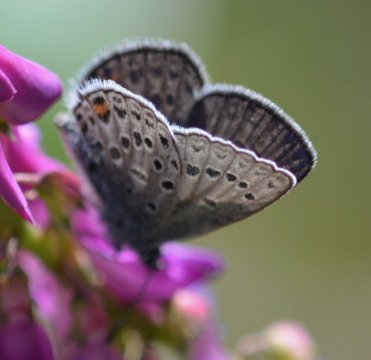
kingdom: Animalia
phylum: Arthropoda
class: Insecta
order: Lepidoptera
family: Lycaenidae
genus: Elkalyce
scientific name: Elkalyce amyntula
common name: Western Tailed-Blue
